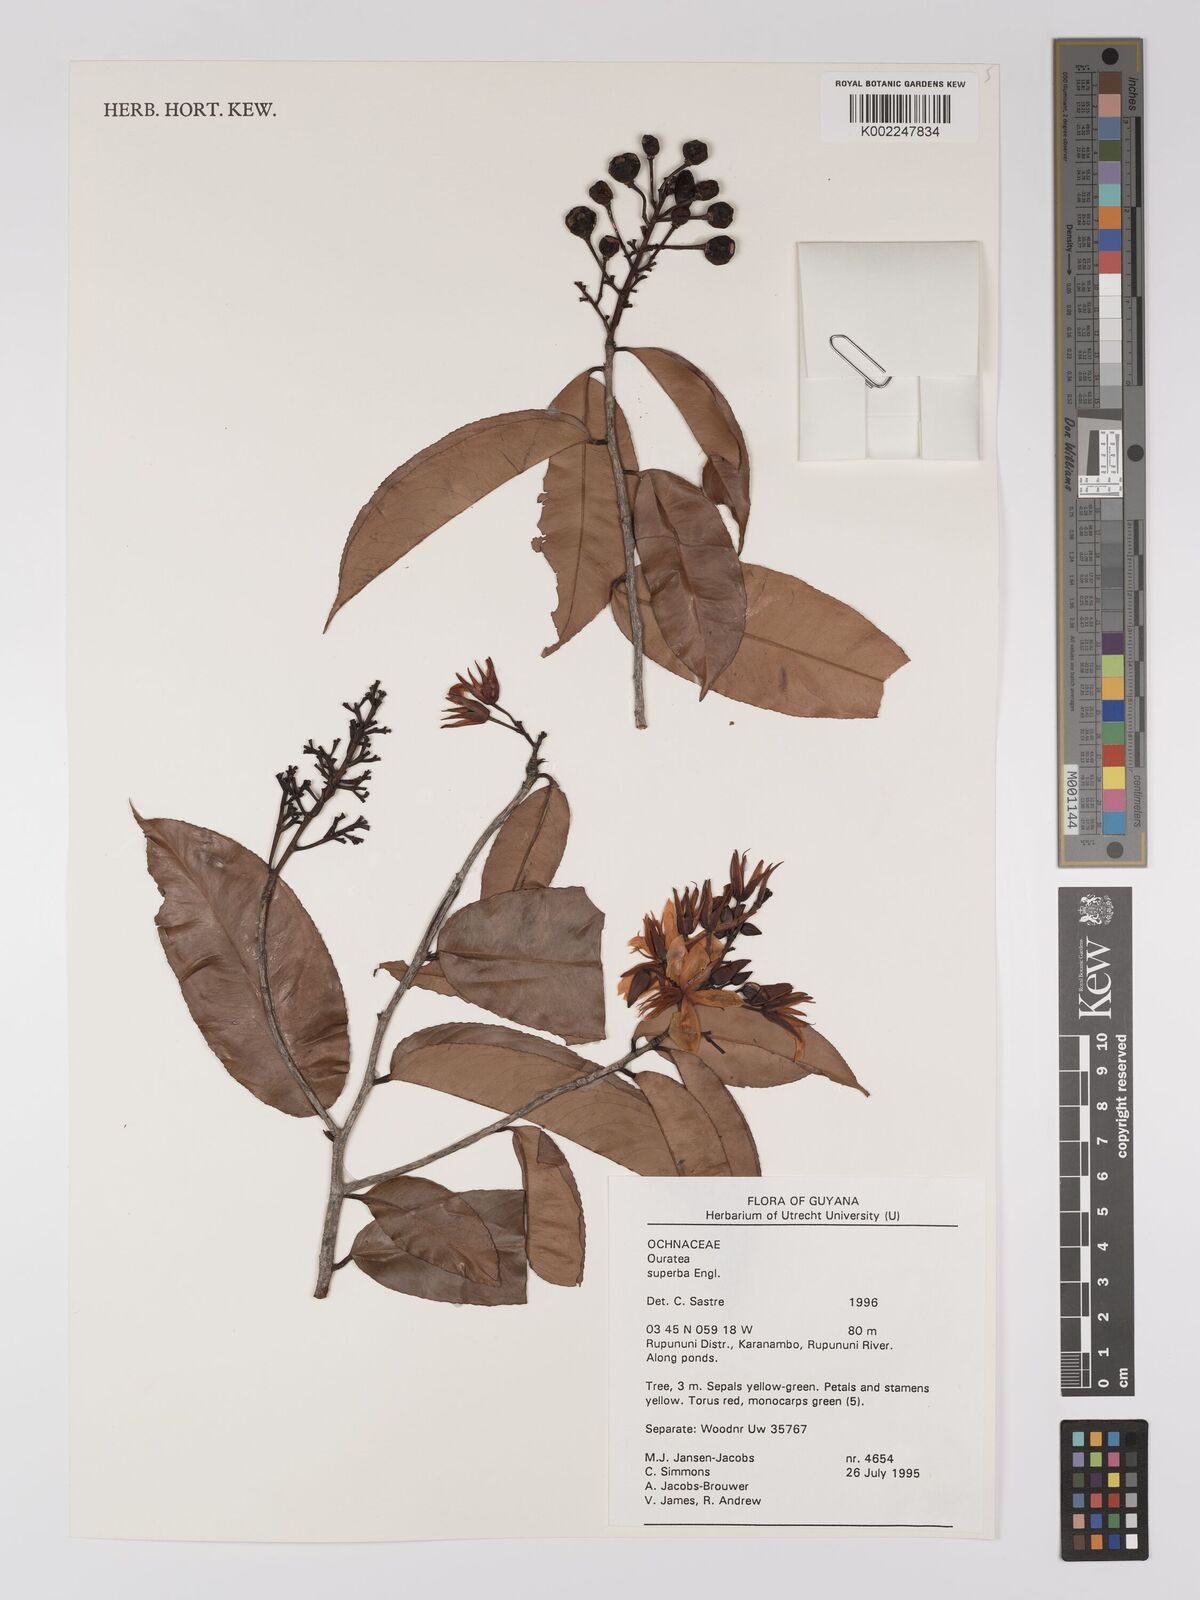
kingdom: Plantae
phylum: Tracheophyta
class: Magnoliopsida
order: Malpighiales
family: Ochnaceae
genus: Ouratea
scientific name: Ouratea superba
